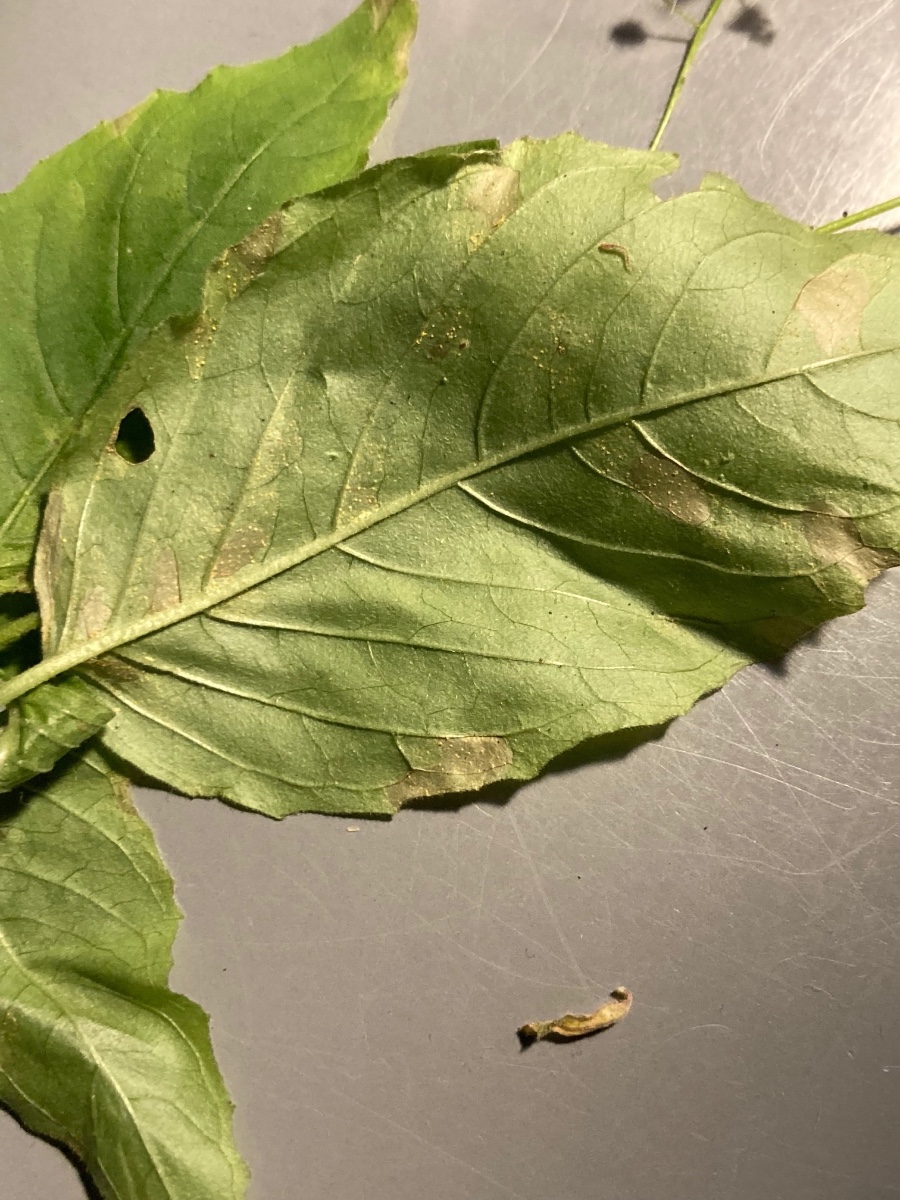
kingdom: Fungi
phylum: Basidiomycota
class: Pucciniomycetes
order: Pucciniales
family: Pucciniastraceae
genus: Pucciniastrum
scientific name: Pucciniastrum circaeae
